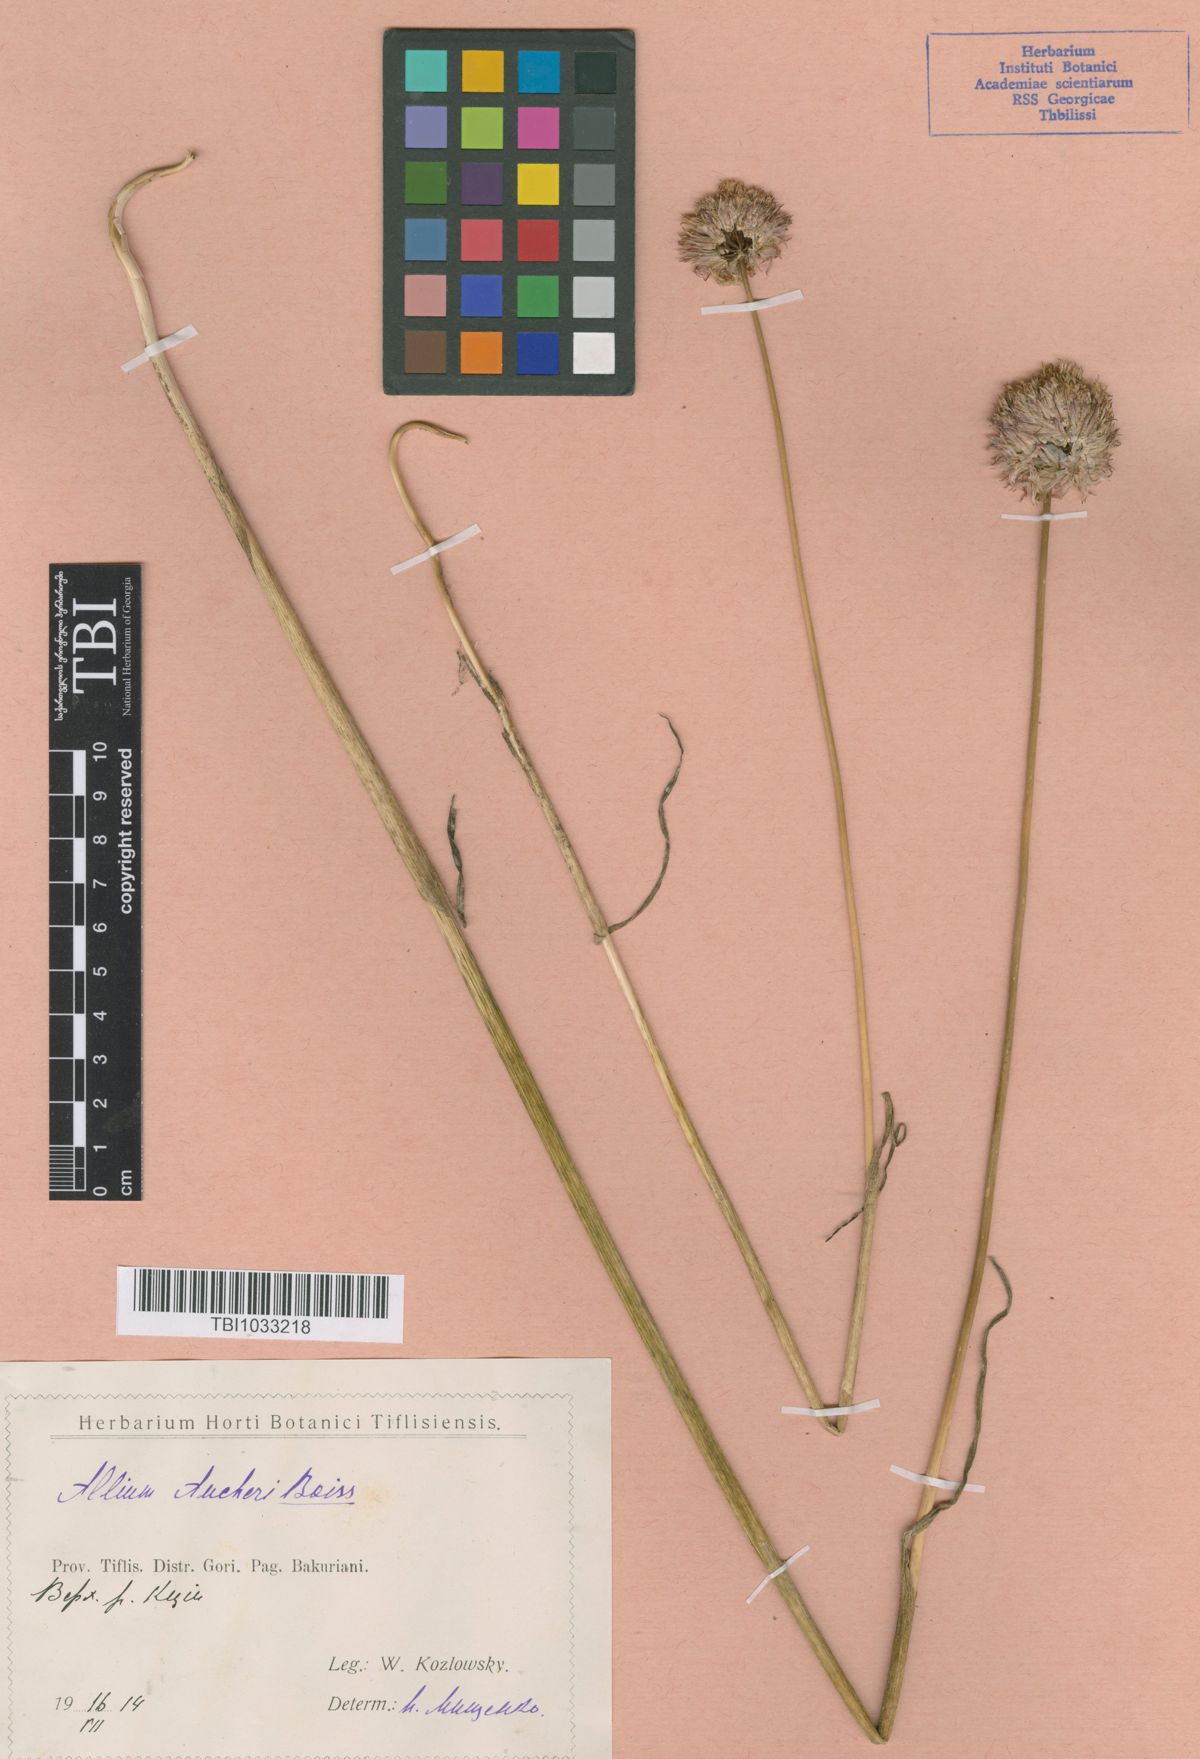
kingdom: Plantae
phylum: Tracheophyta
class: Liliopsida
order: Asparagales
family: Amaryllidaceae
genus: Allium
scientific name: Allium aucheri
